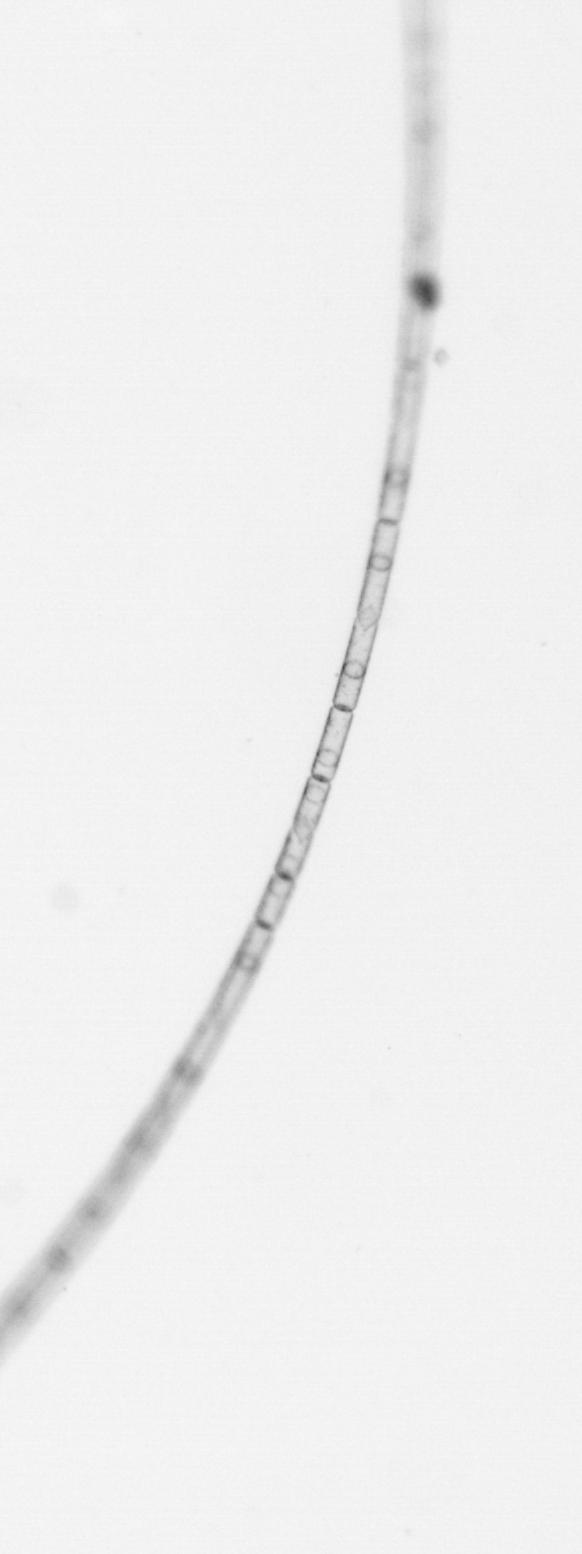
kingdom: Chromista
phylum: Ochrophyta
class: Bacillariophyceae
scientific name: Bacillariophyceae
